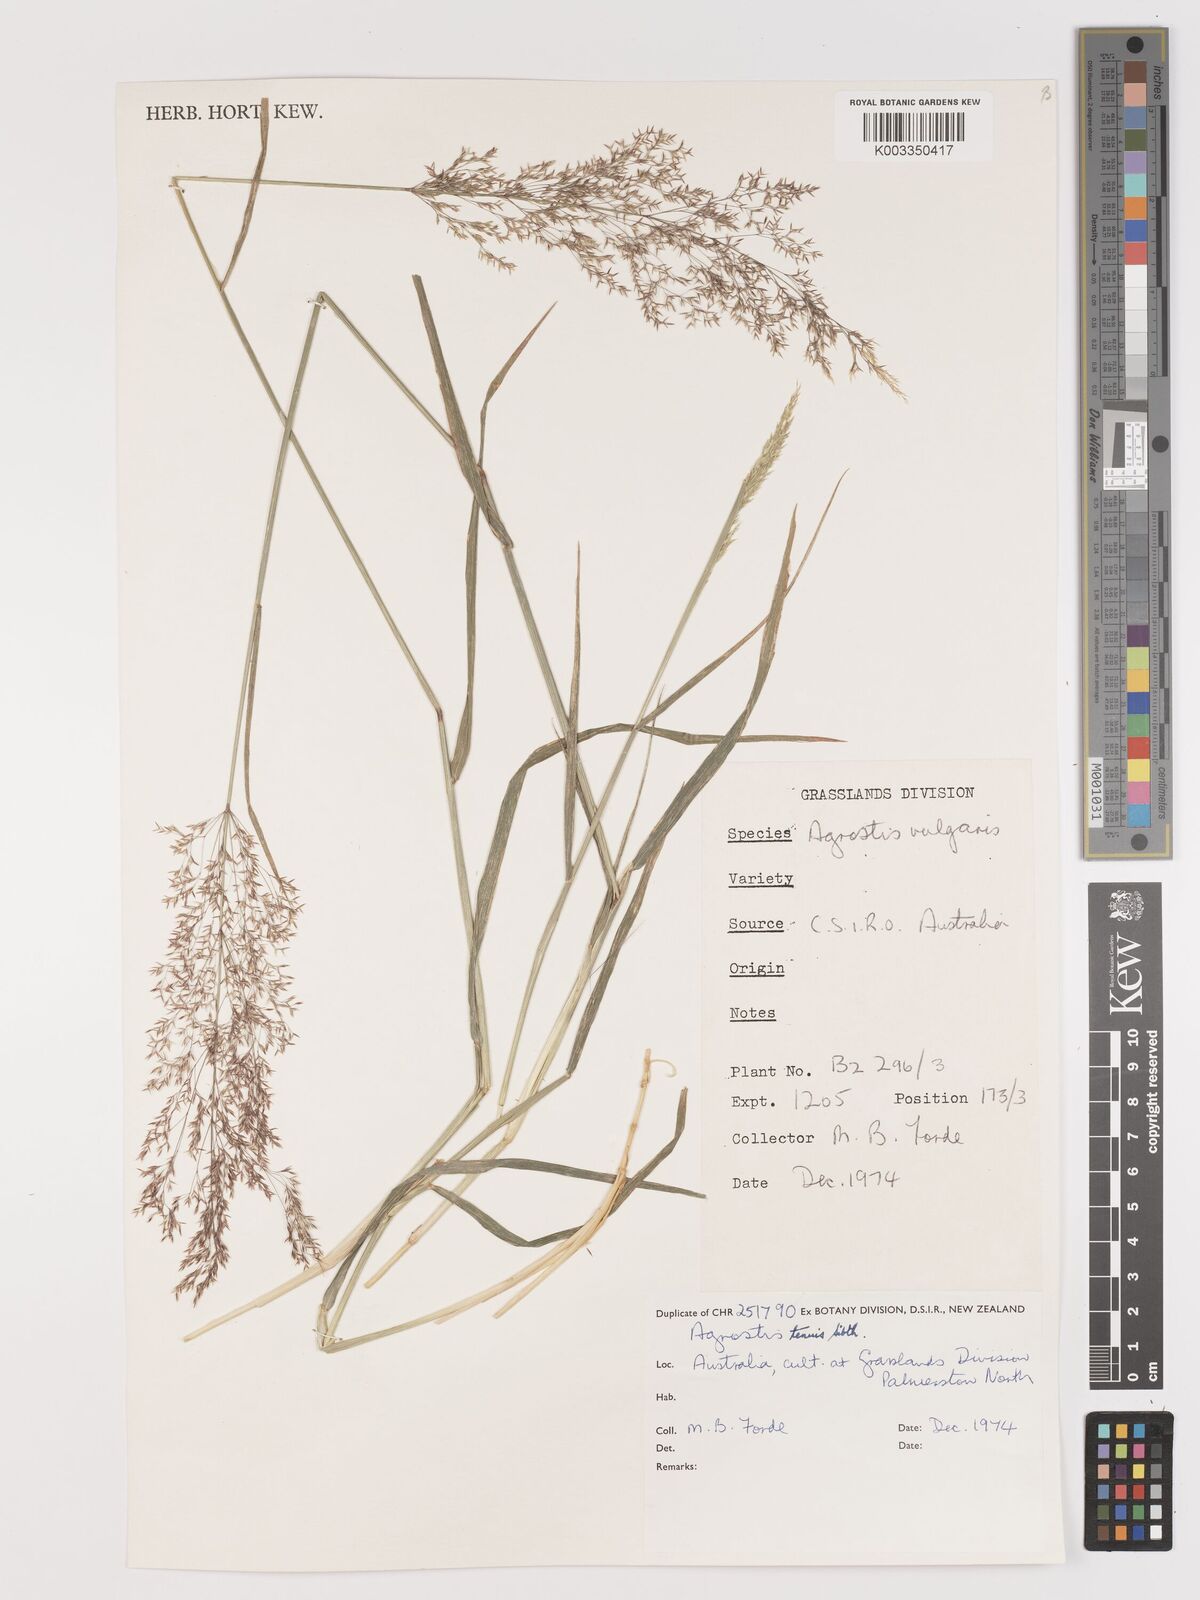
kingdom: Plantae
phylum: Tracheophyta
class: Liliopsida
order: Poales
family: Poaceae
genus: Agrostis
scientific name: Agrostis capillaris
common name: Colonial bentgrass
